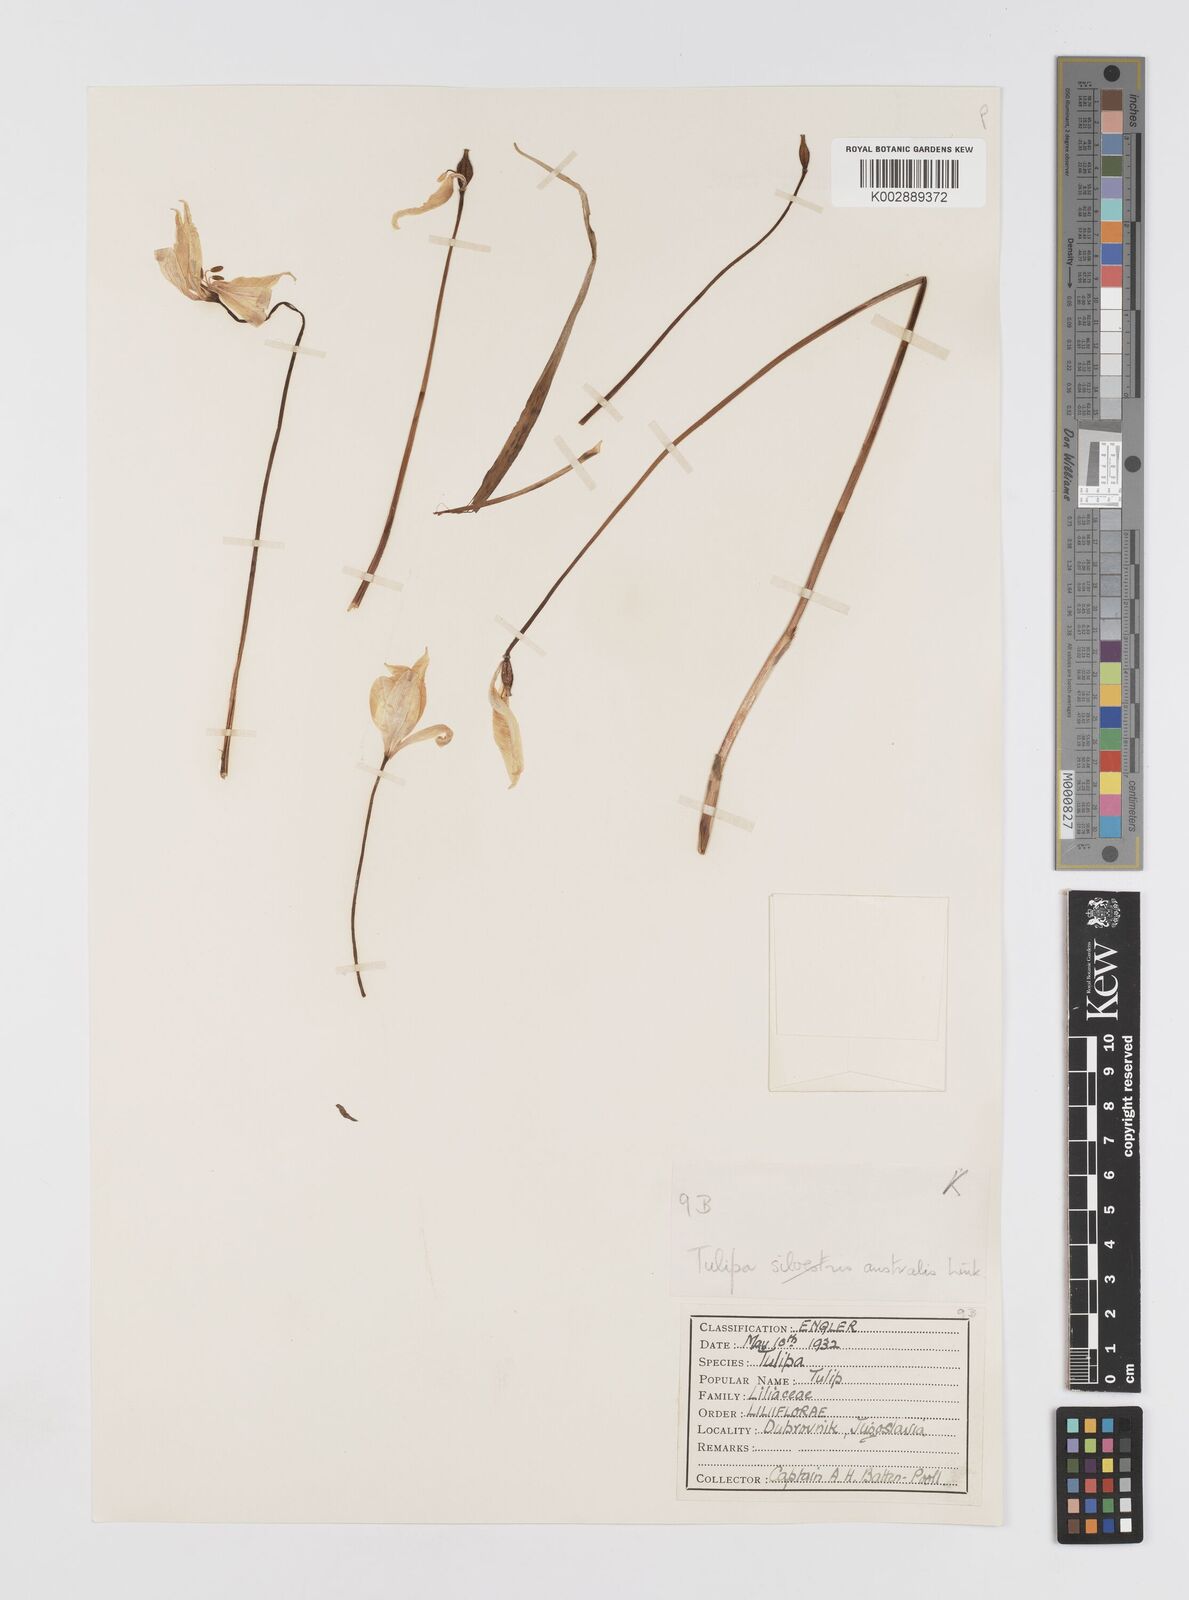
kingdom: Plantae
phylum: Tracheophyta
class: Liliopsida
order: Liliales
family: Liliaceae
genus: Tulipa
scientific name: Tulipa sylvestris
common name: Wild tulip
